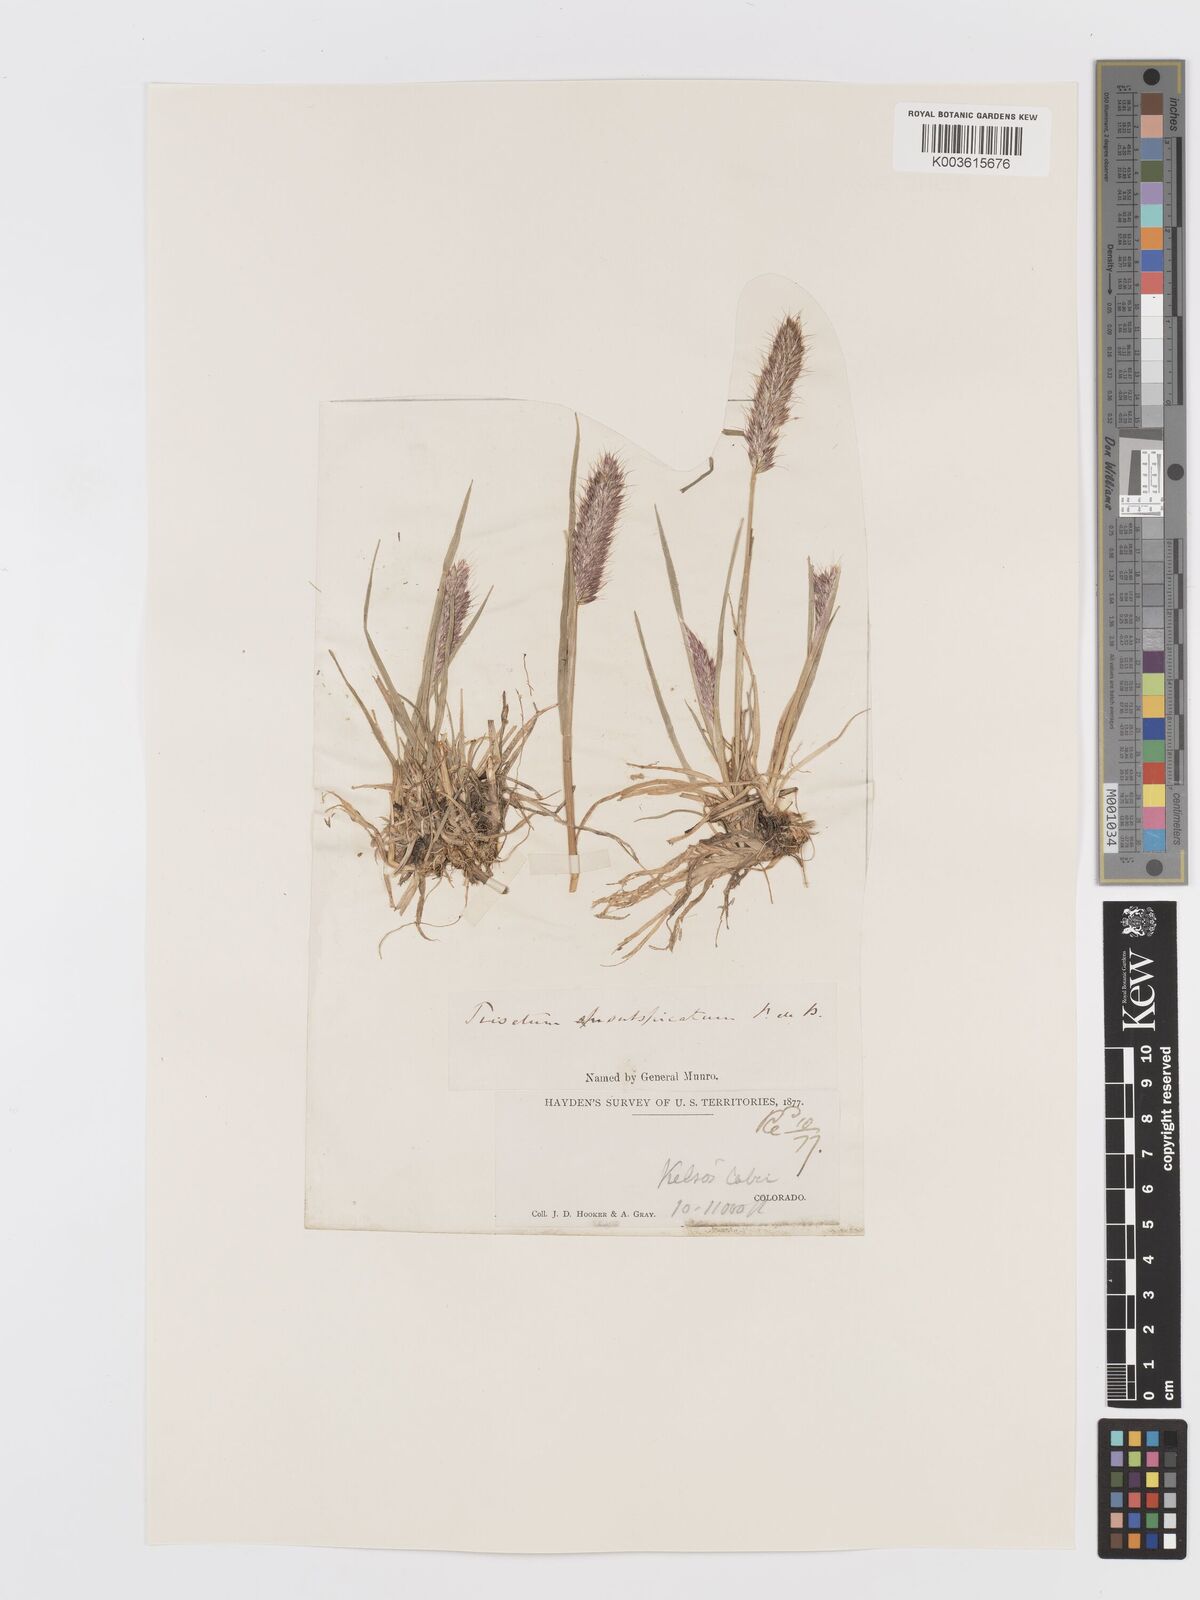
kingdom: Plantae
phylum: Tracheophyta
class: Liliopsida
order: Poales
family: Poaceae
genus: Koeleria
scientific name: Koeleria spicata
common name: Mountain trisetum
